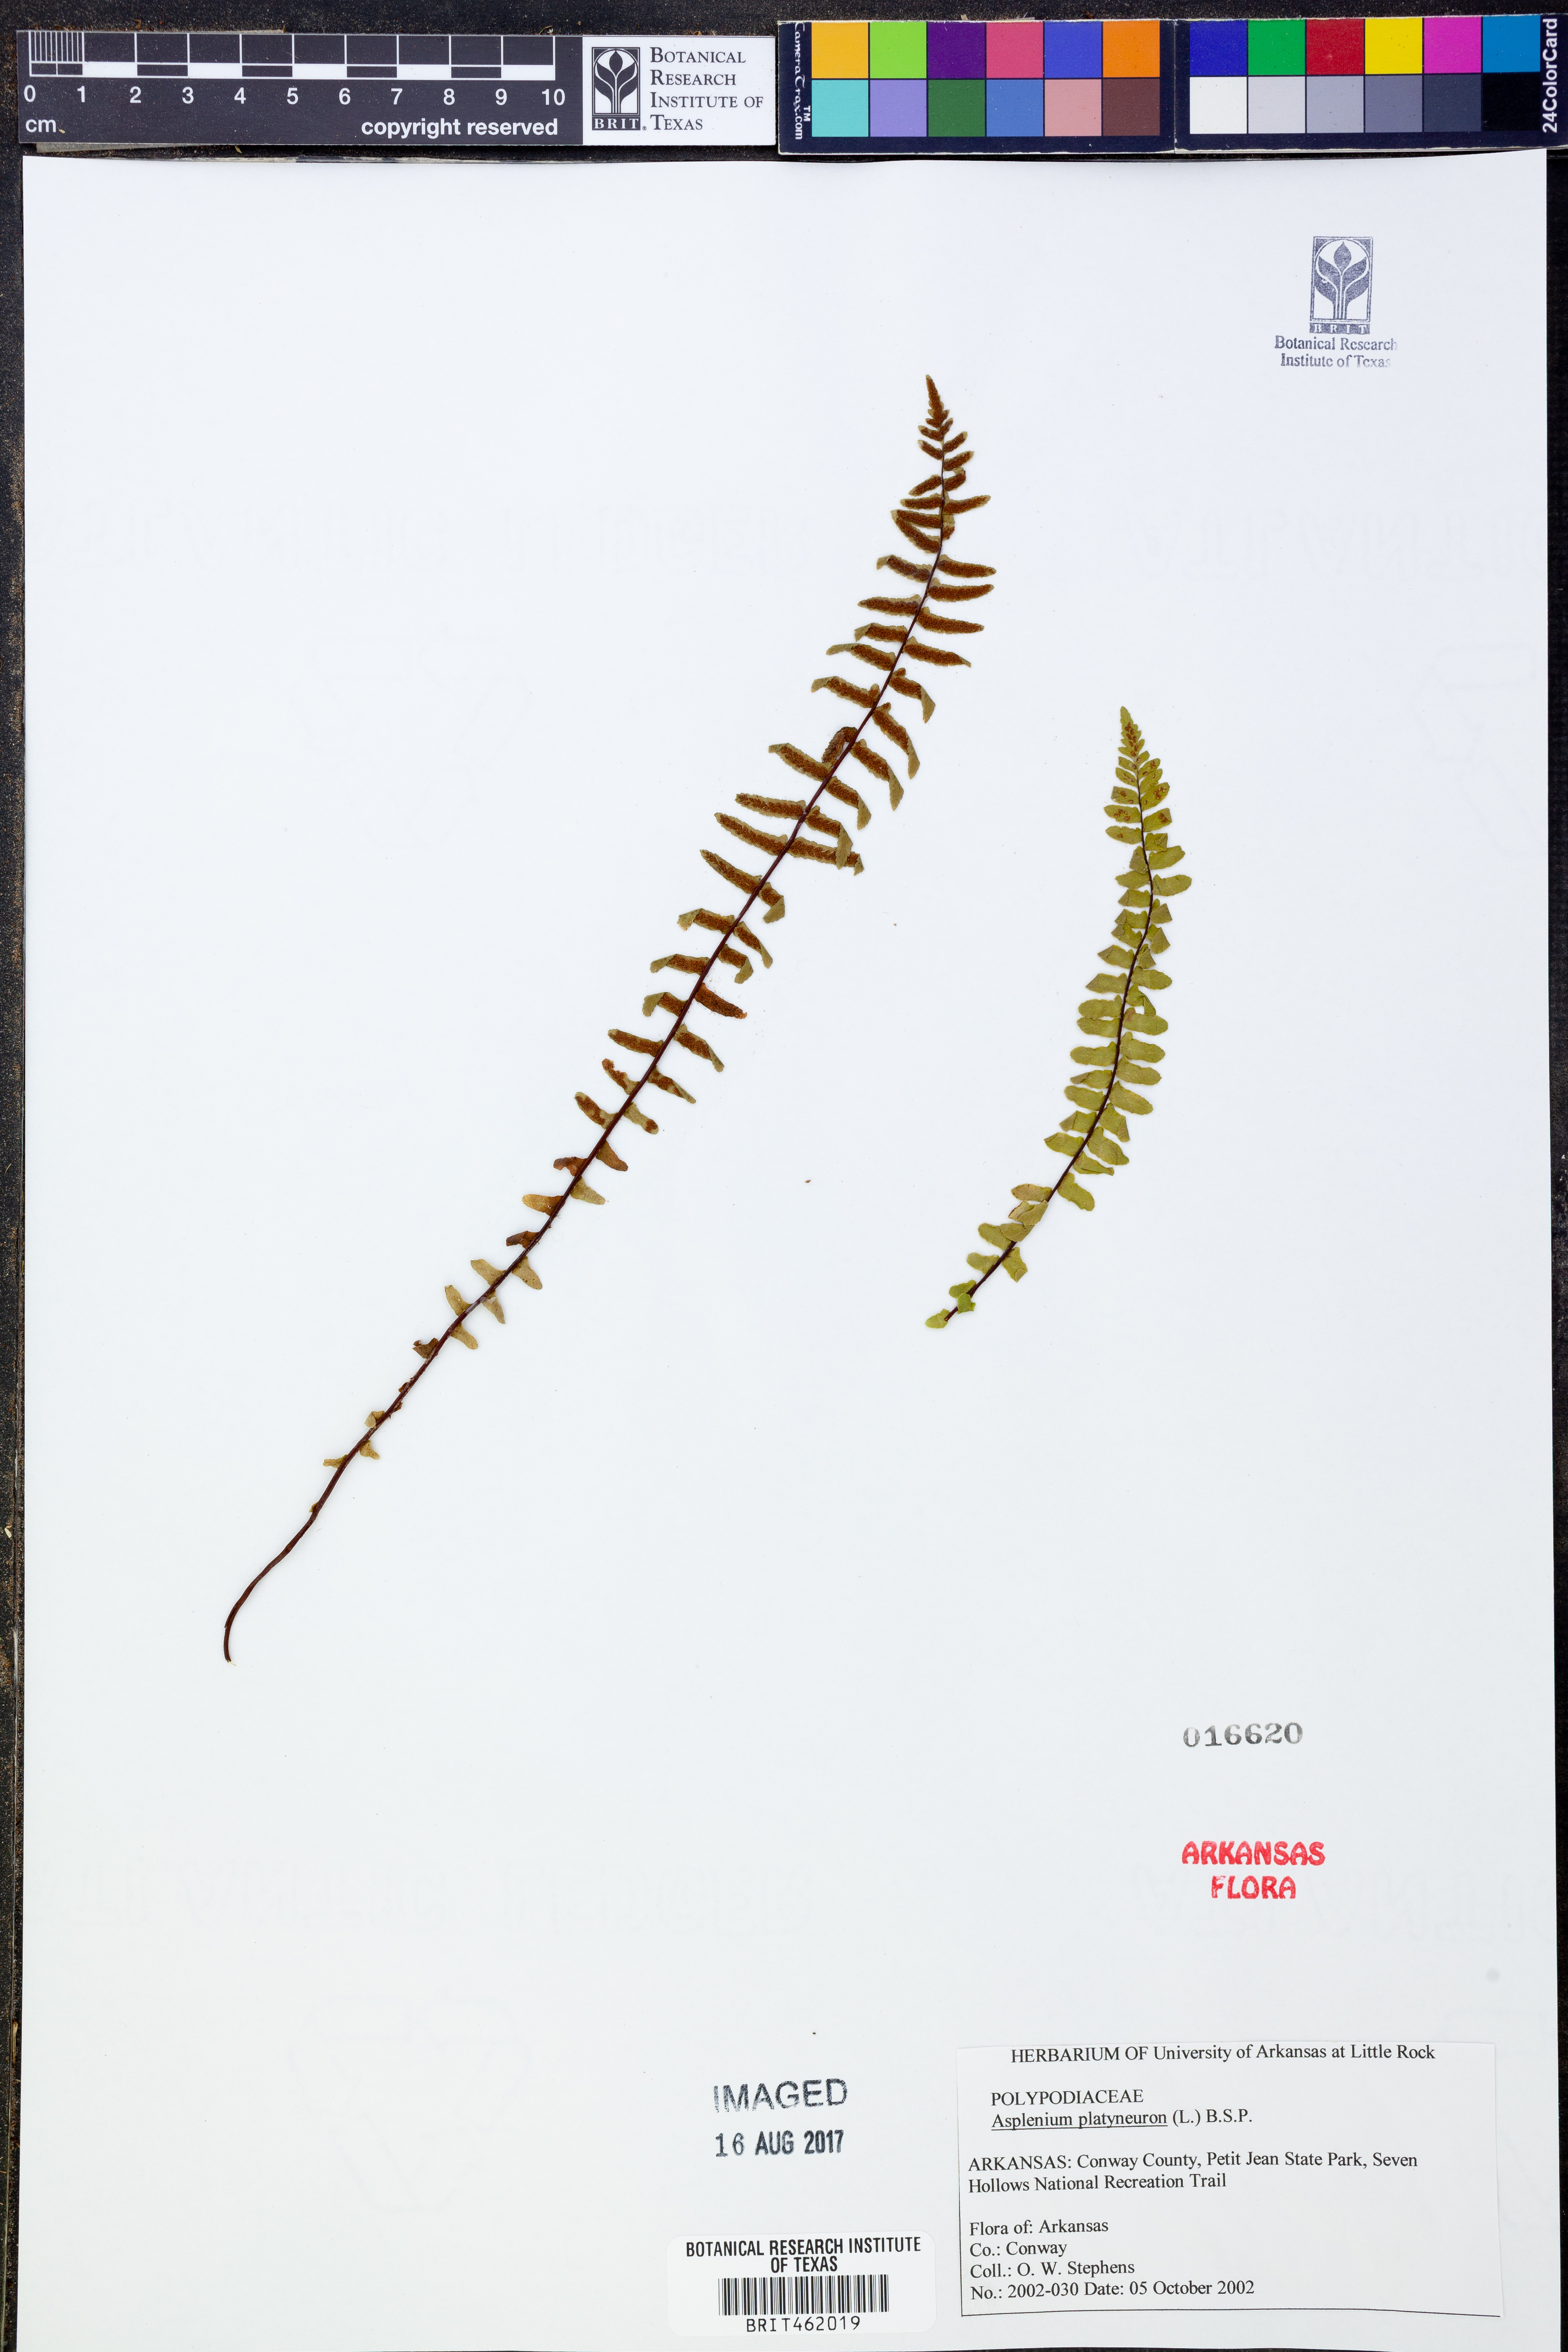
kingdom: Plantae
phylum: Tracheophyta
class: Polypodiopsida
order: Polypodiales
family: Aspleniaceae
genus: Asplenium
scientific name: Asplenium platyneuron
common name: Ebony spleenwort
